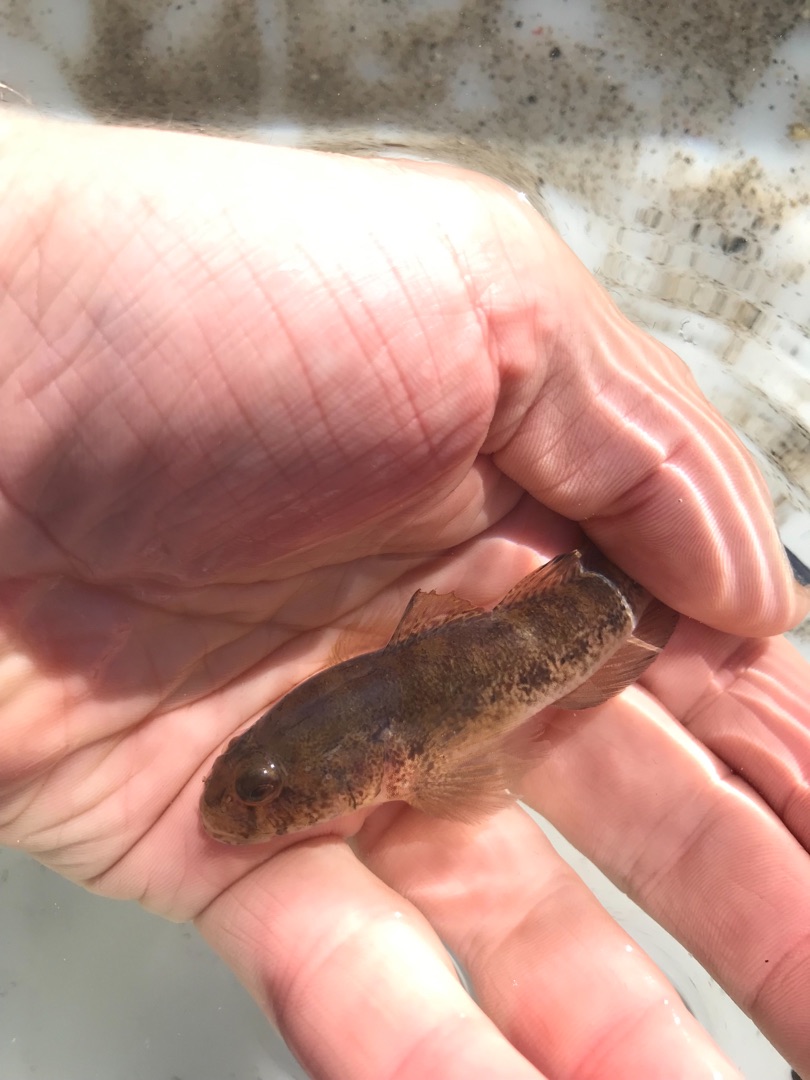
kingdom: Animalia
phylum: Chordata
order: Perciformes
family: Gobiidae
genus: Gobius
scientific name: Gobius niger
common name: Sortkutling
